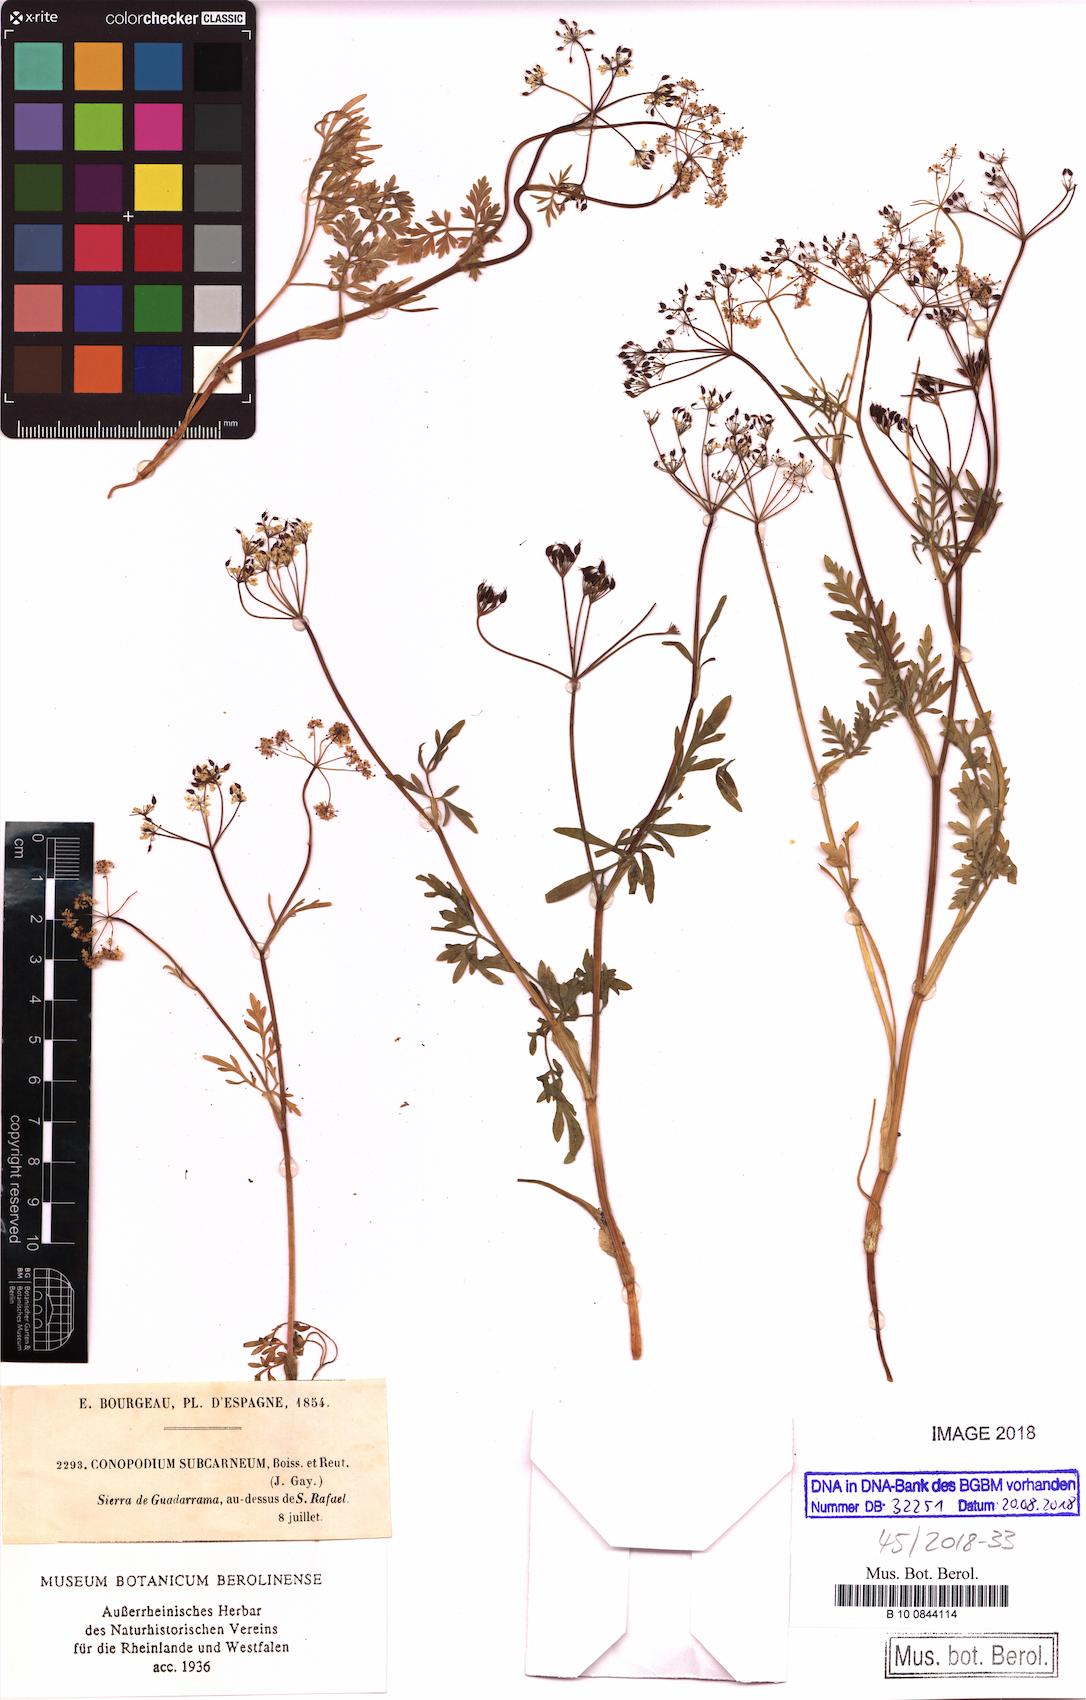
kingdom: Plantae
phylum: Tracheophyta
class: Magnoliopsida
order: Apiales
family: Apiaceae
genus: Conopodium
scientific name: Conopodium subcarneum
